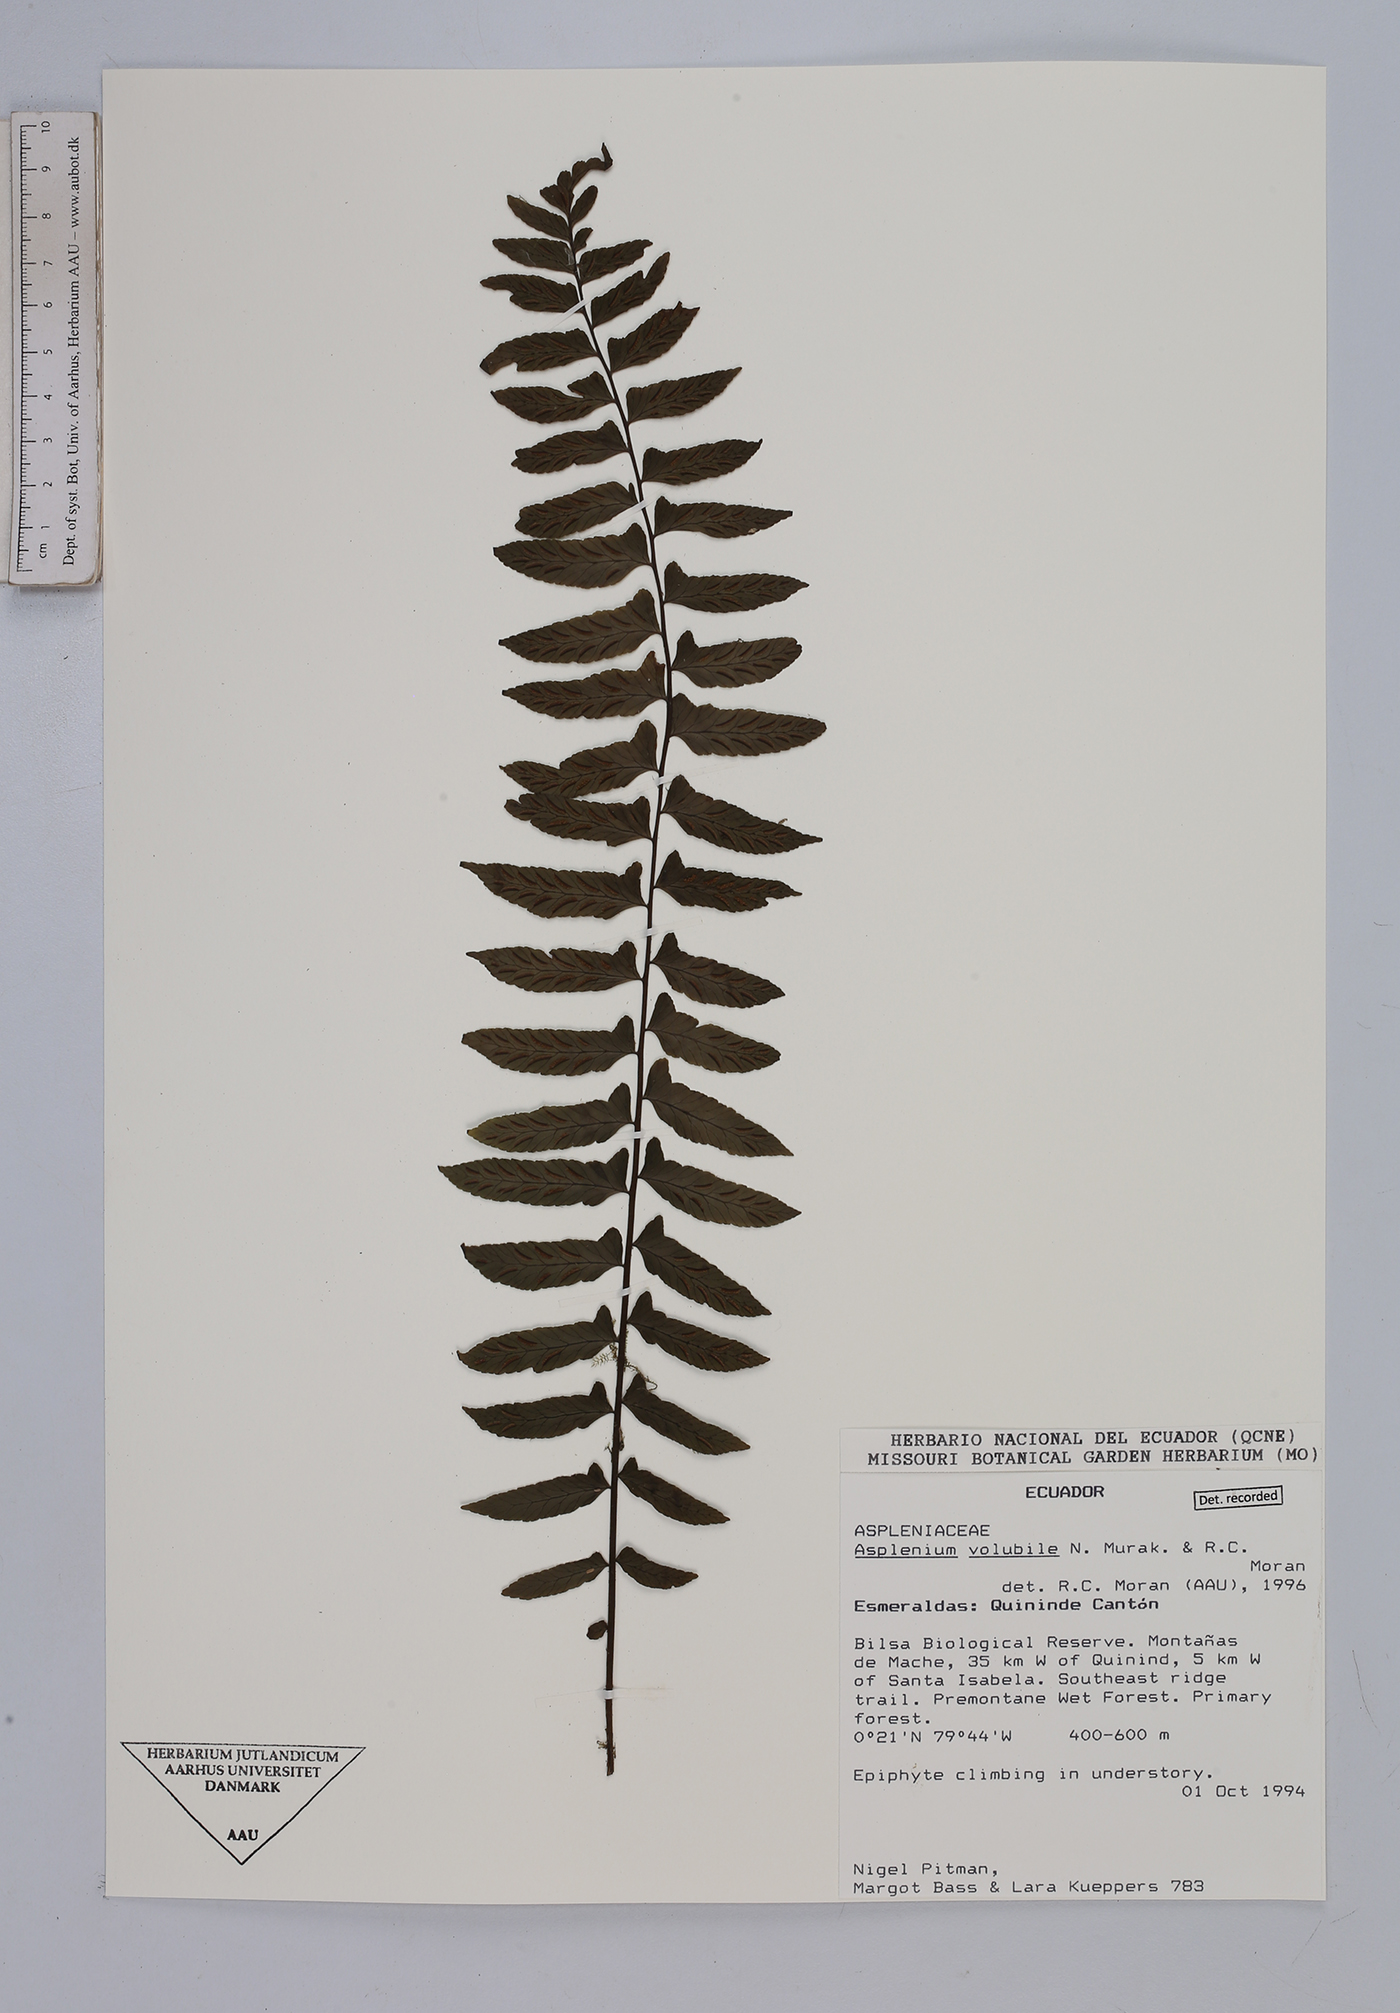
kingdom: Plantae
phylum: Tracheophyta
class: Polypodiopsida
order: Polypodiales
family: Aspleniaceae
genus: Hymenasplenium
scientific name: Hymenasplenium volubile
